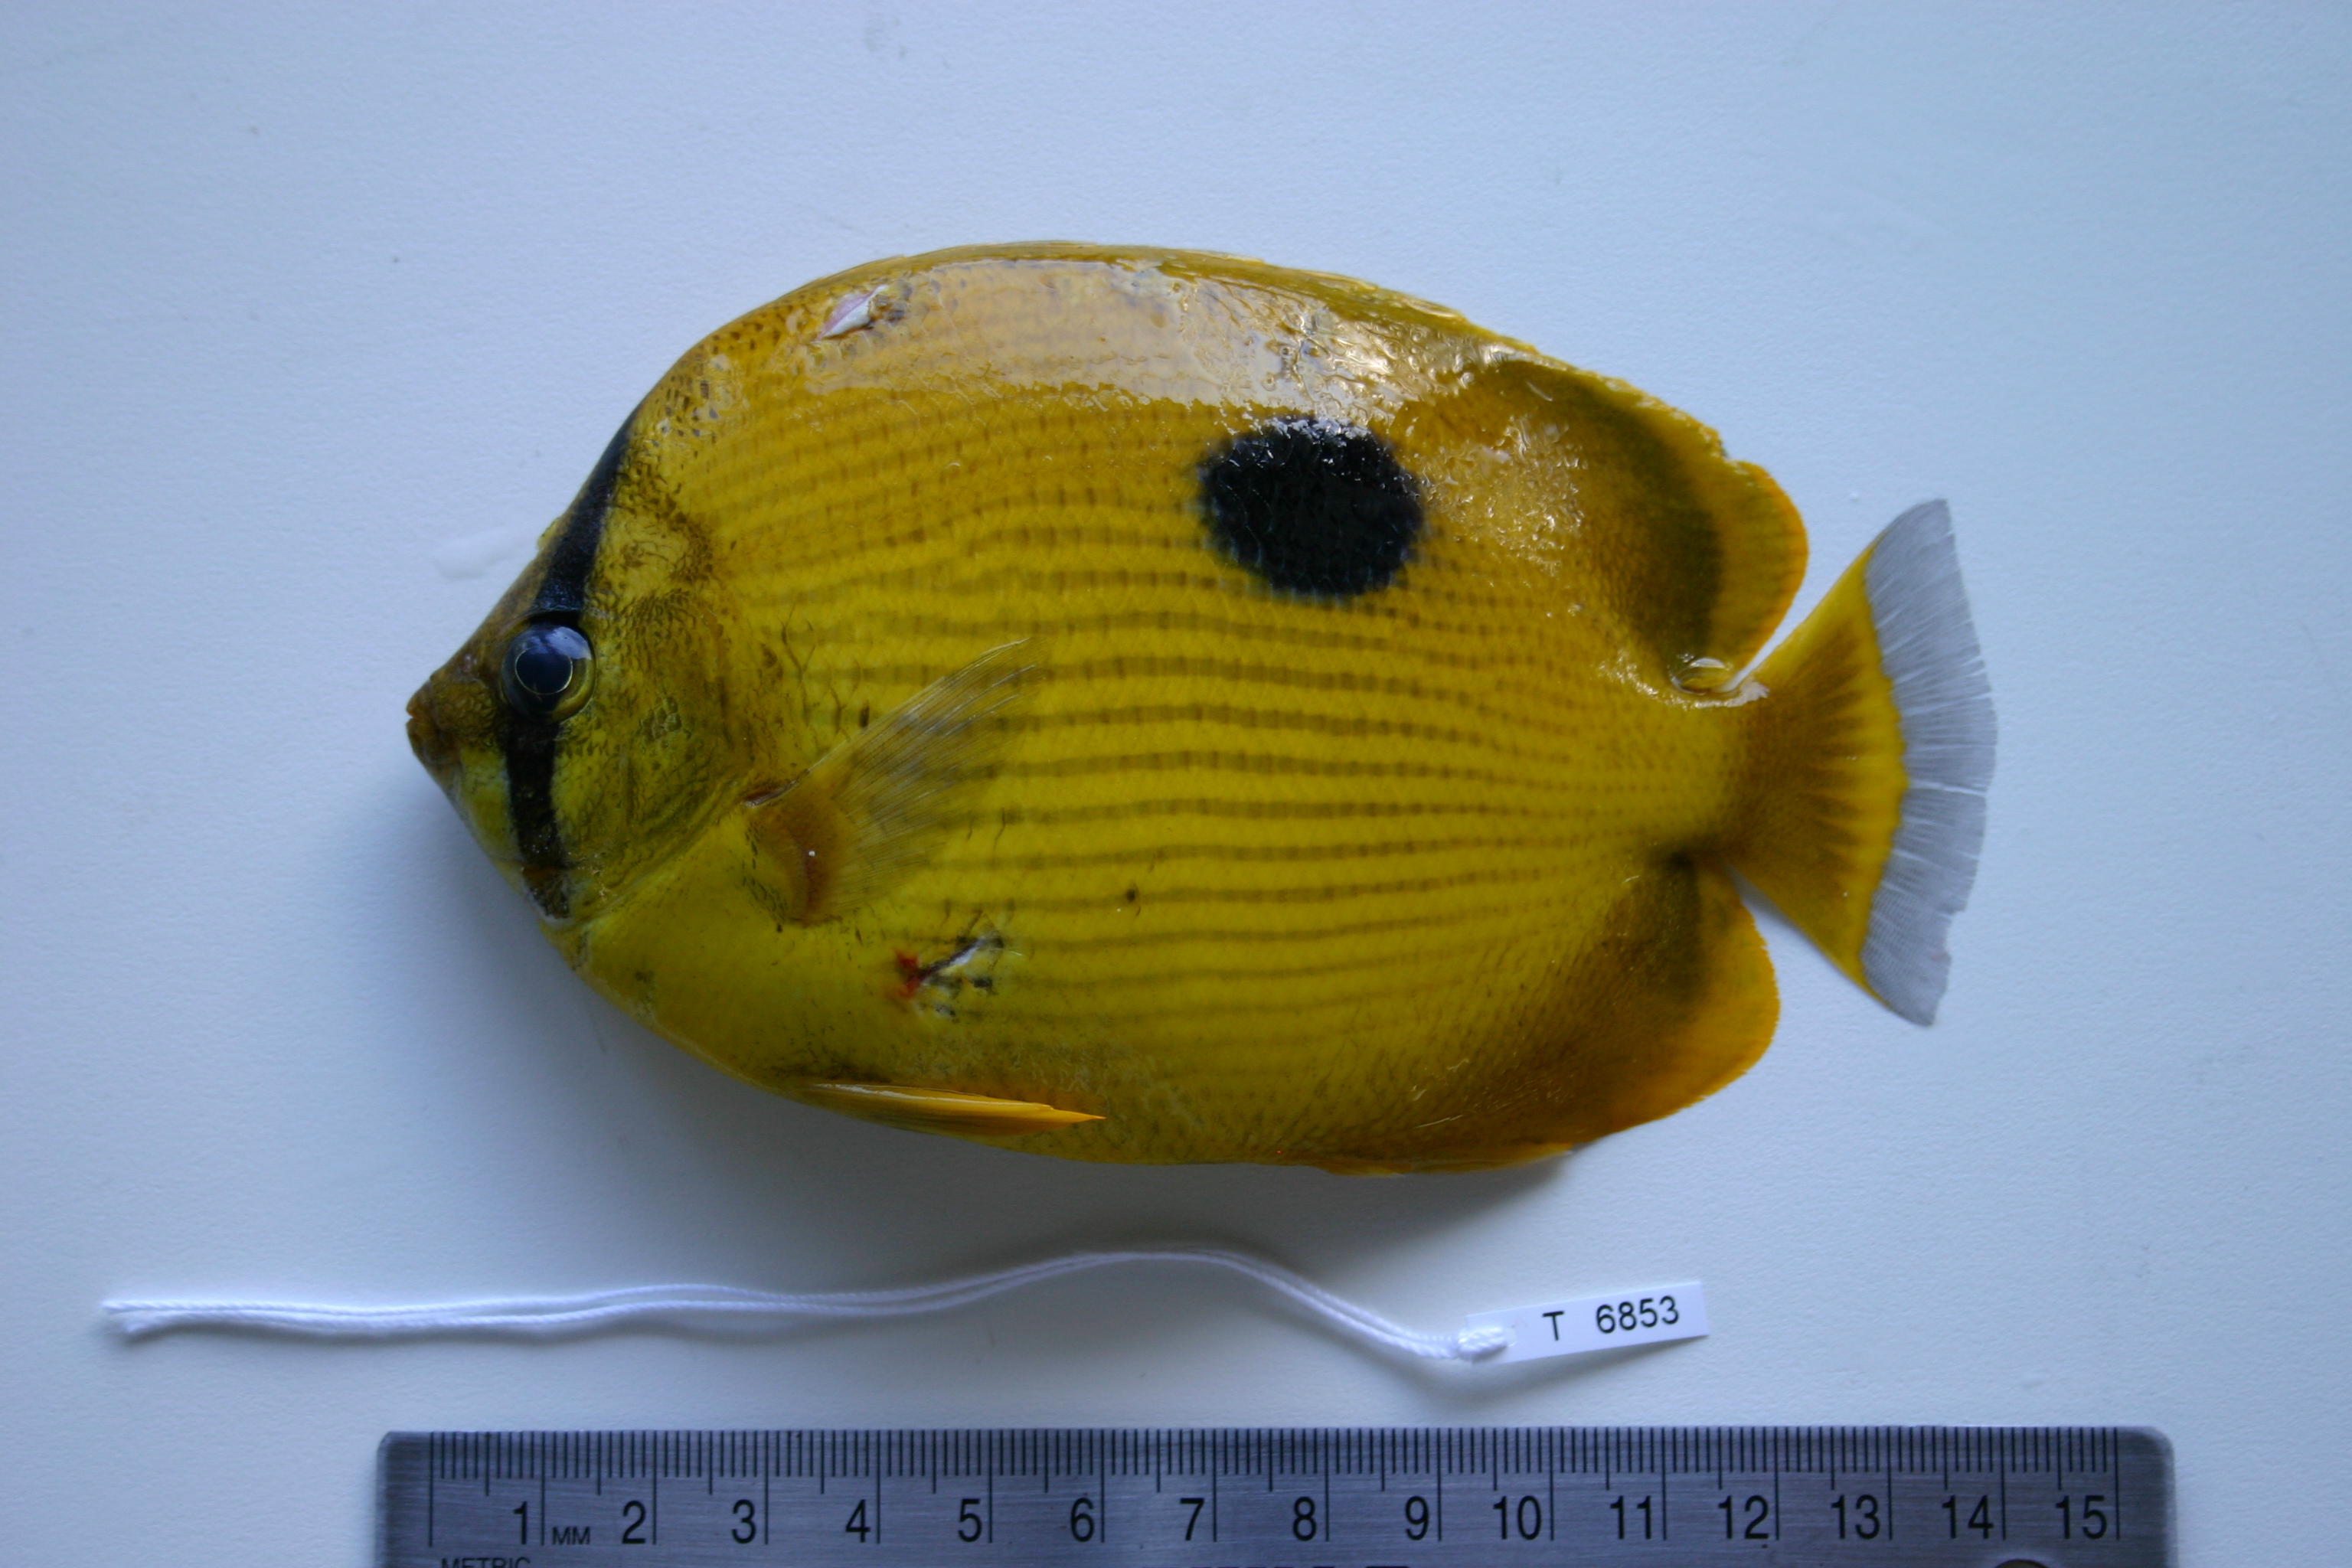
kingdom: Animalia
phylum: Chordata
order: Perciformes
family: Chaetodontidae
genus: Chaetodon
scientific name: Chaetodon zanzibarensis
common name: Zanzibar butterflyfish
